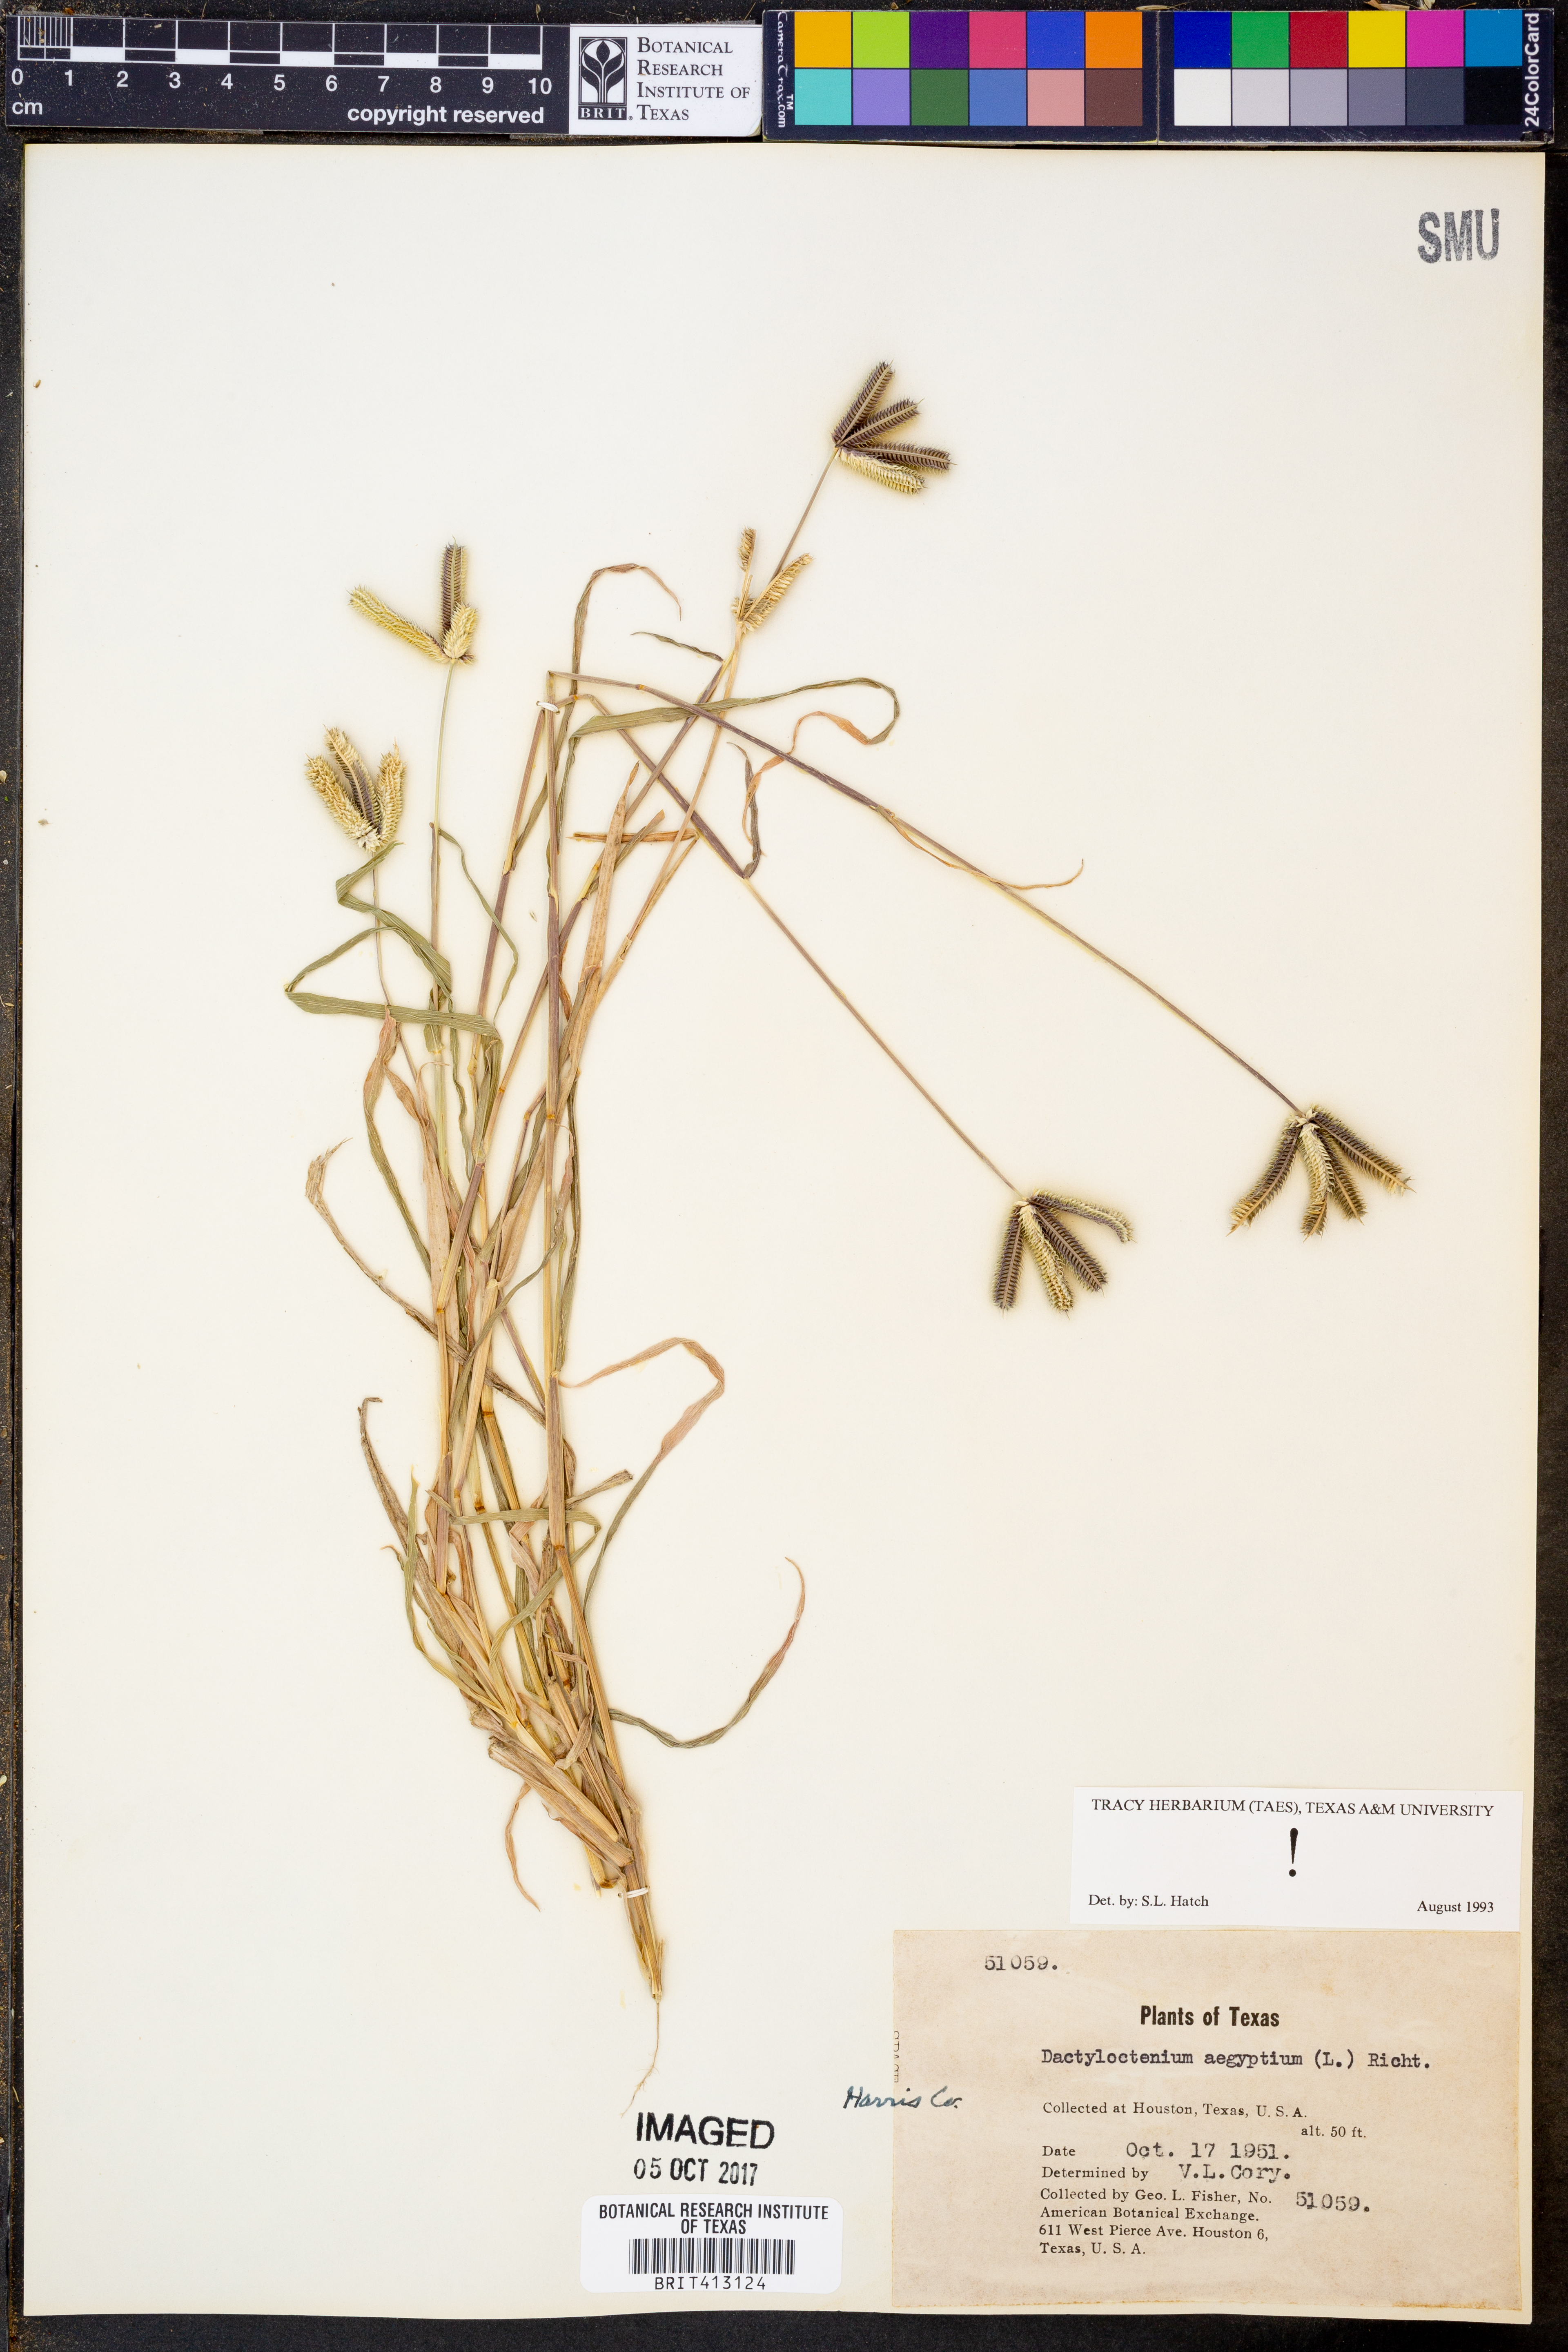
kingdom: Plantae
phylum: Tracheophyta
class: Liliopsida
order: Poales
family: Poaceae
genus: Dactyloctenium
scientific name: Dactyloctenium aegyptium
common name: Egyptian grass
